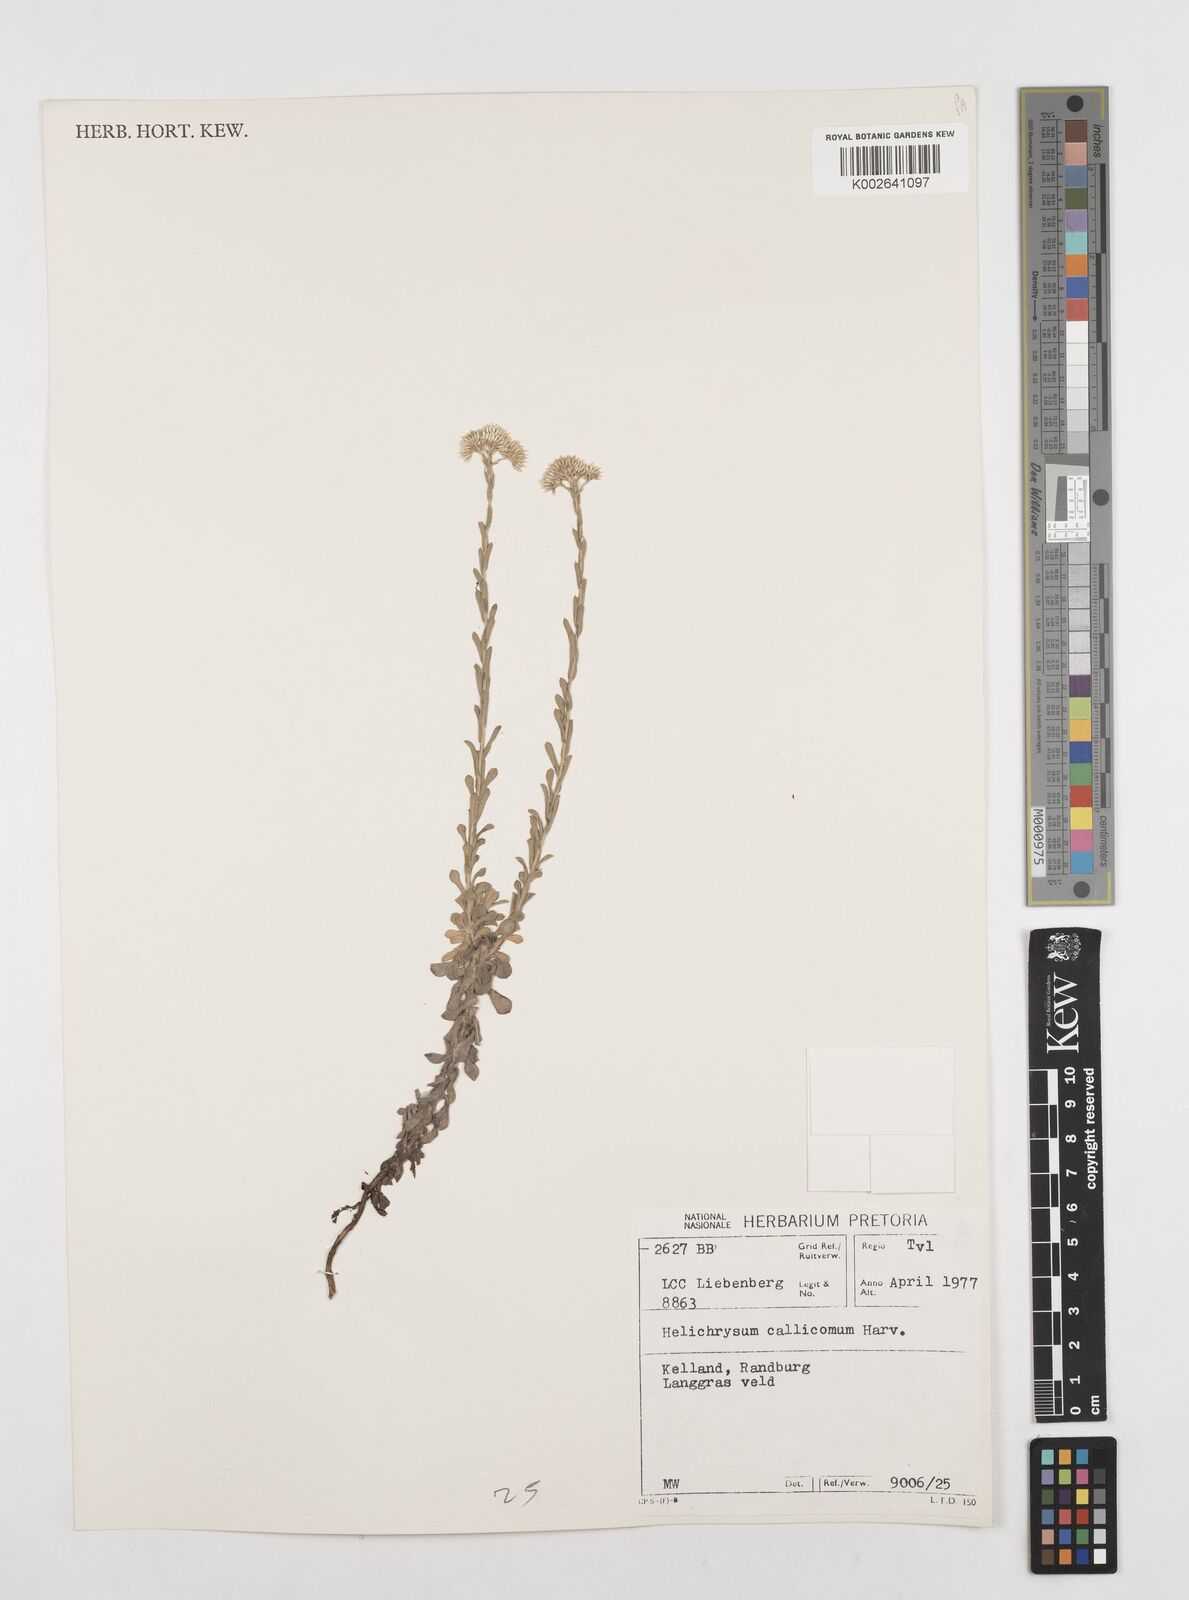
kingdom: Plantae
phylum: Tracheophyta
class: Magnoliopsida
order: Asterales
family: Asteraceae
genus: Helichrysum
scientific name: Helichrysum callicomum
